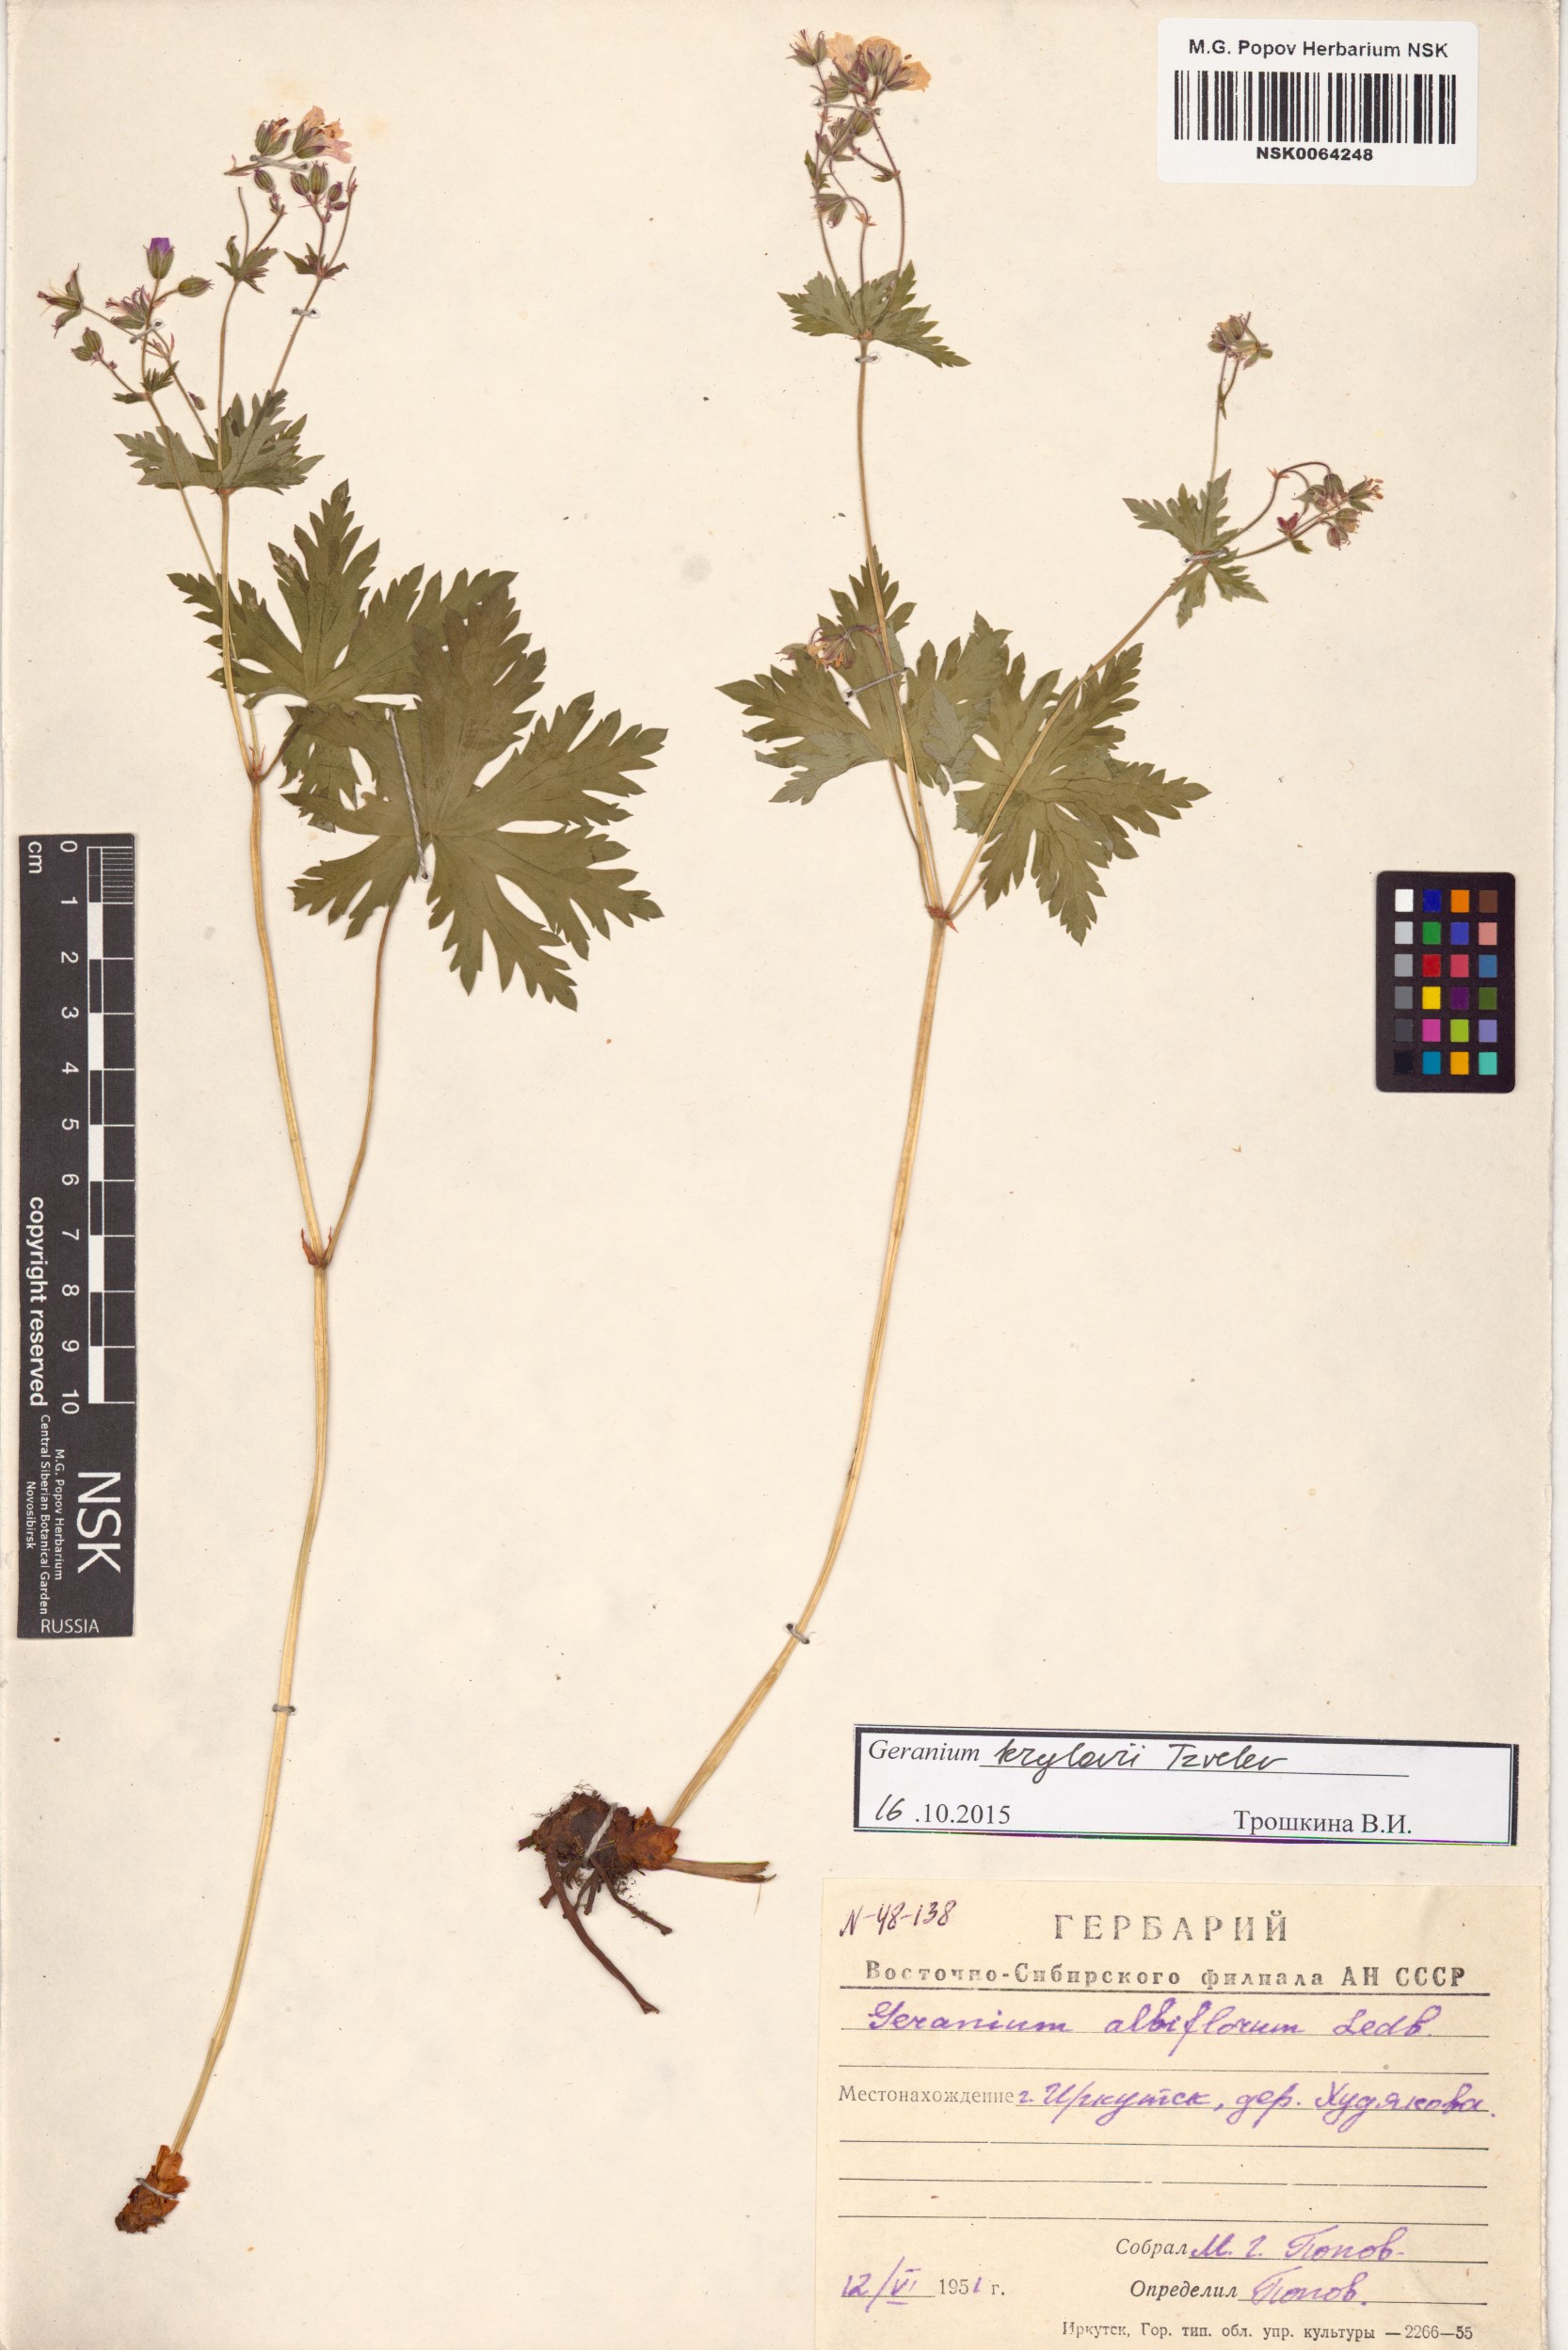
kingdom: Plantae
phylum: Tracheophyta
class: Magnoliopsida
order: Geraniales
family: Geraniaceae
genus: Geranium
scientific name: Geranium sylvaticum
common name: Wood crane's-bill
